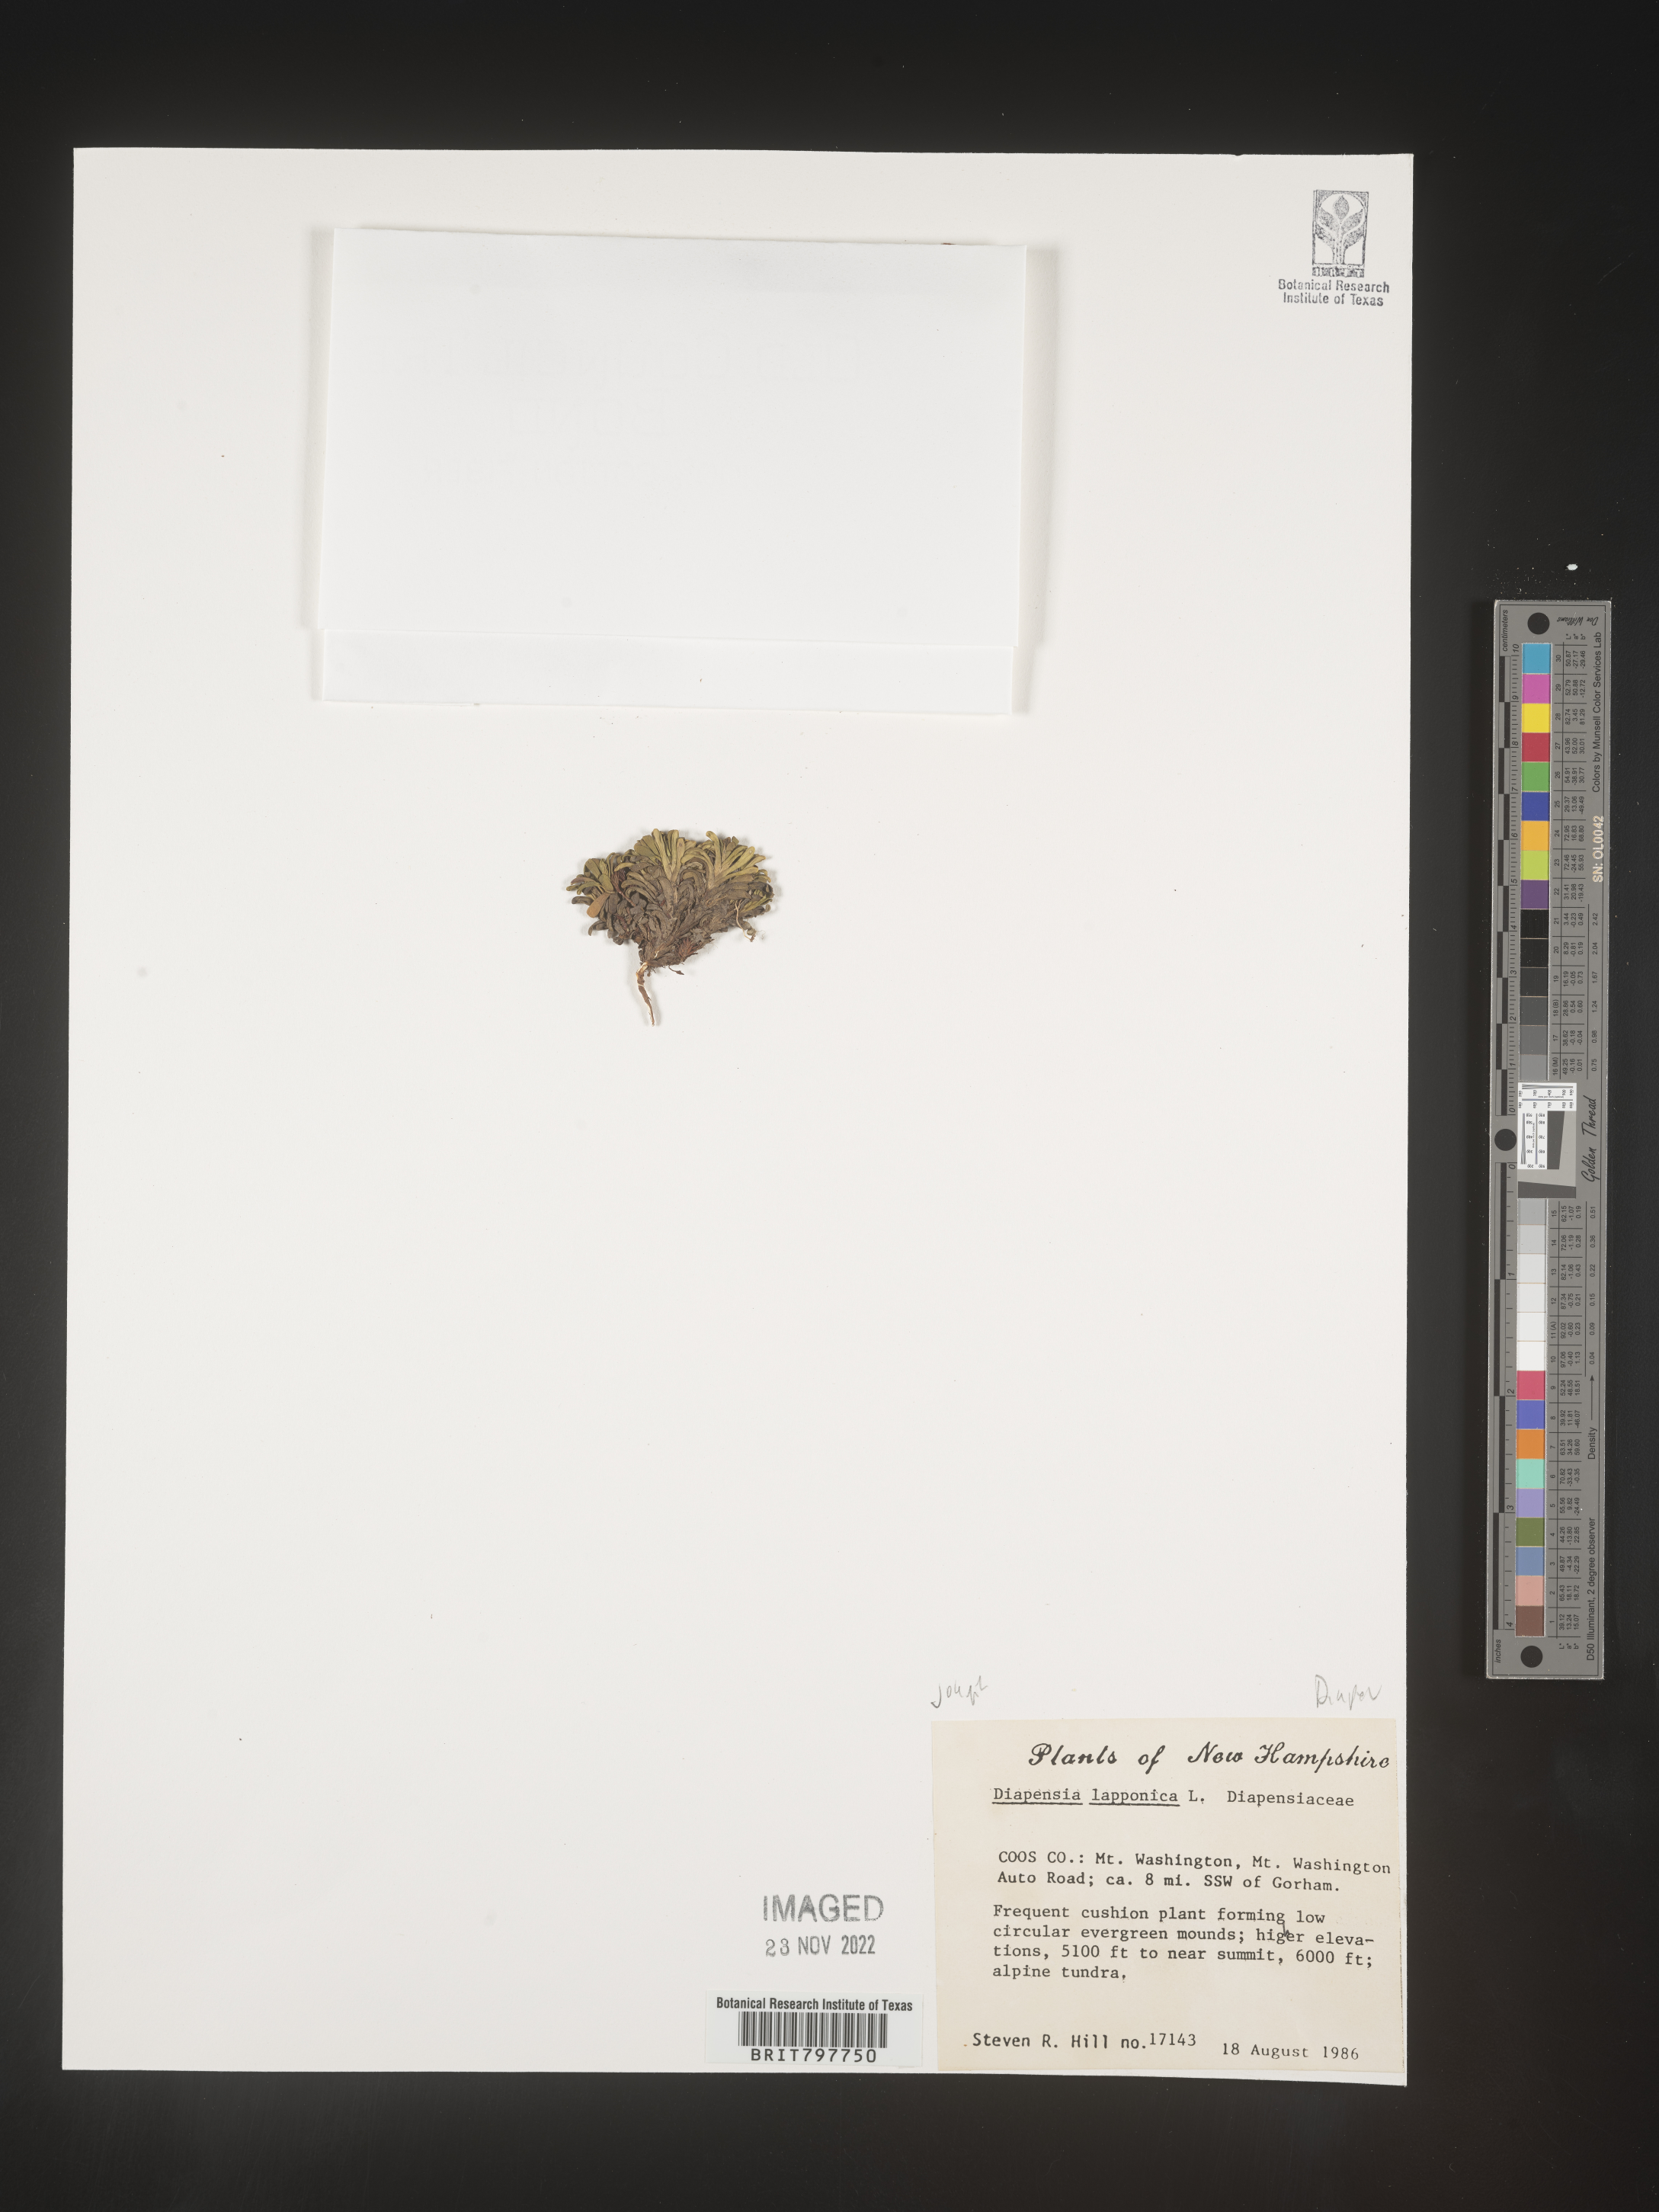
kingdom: Plantae
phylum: Tracheophyta
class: Magnoliopsida
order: Ericales
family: Diapensiaceae
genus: Diapensia
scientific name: Diapensia
